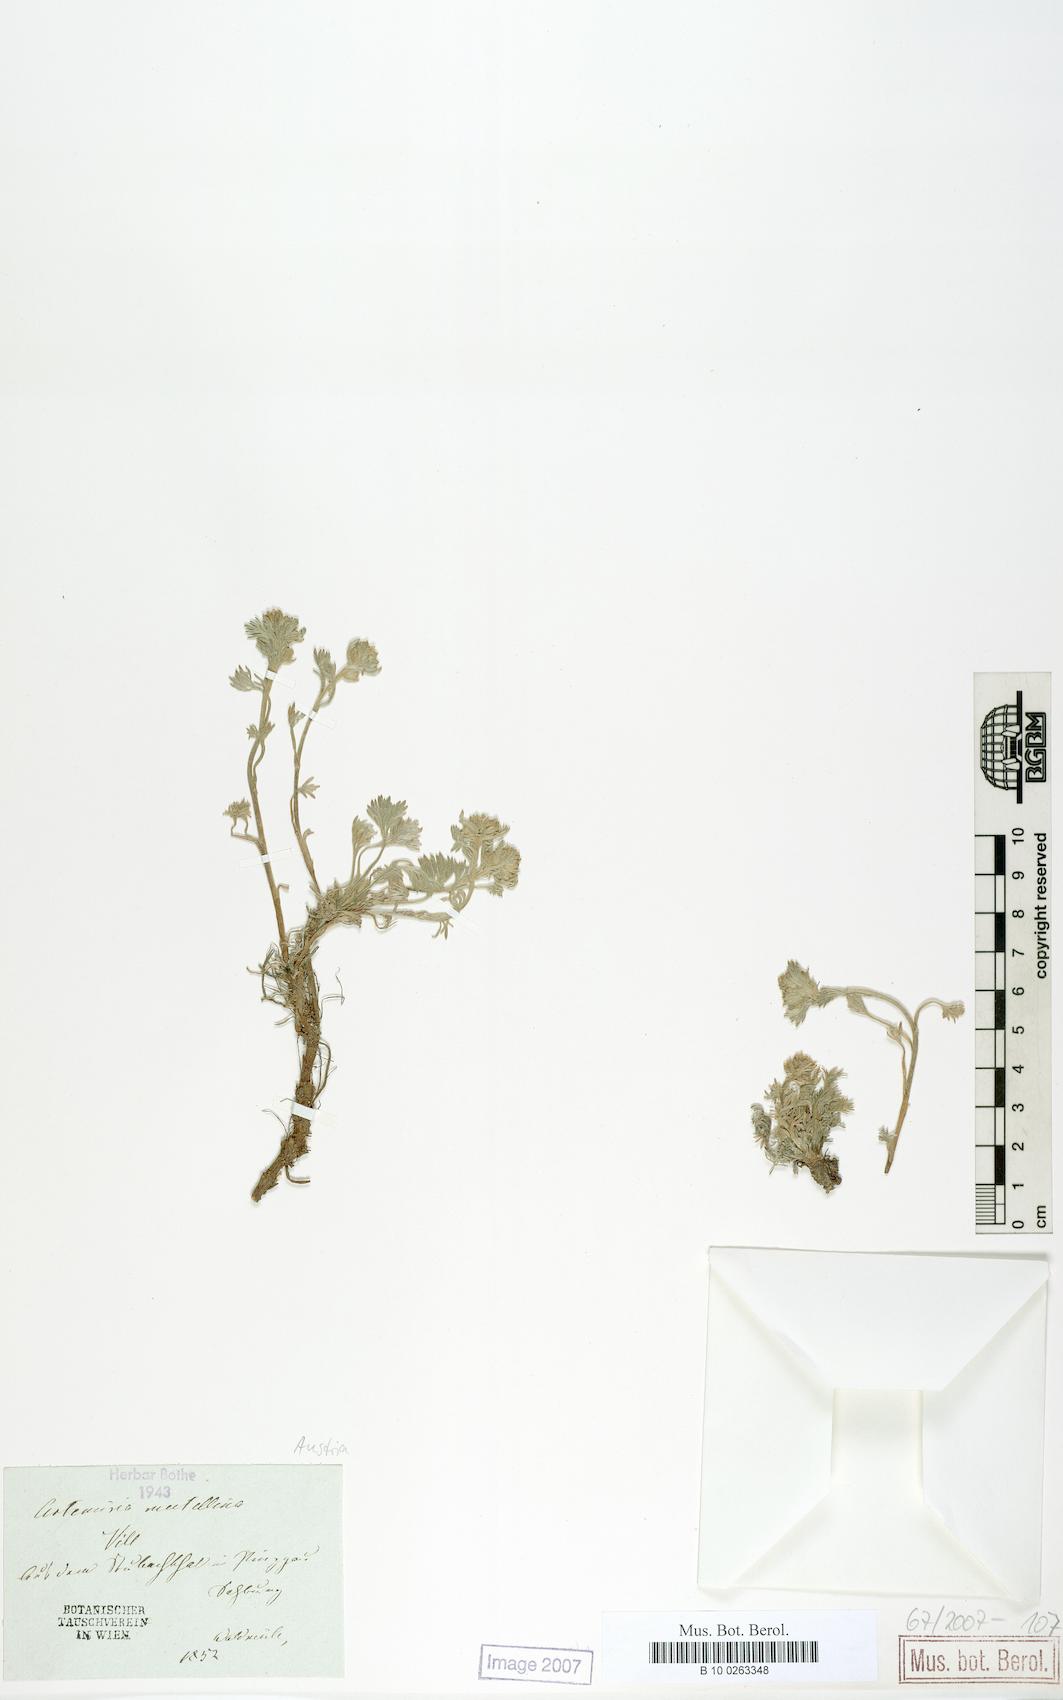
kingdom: Plantae
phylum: Tracheophyta
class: Magnoliopsida
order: Asterales
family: Asteraceae
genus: Artemisia
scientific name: Artemisia mutellina
